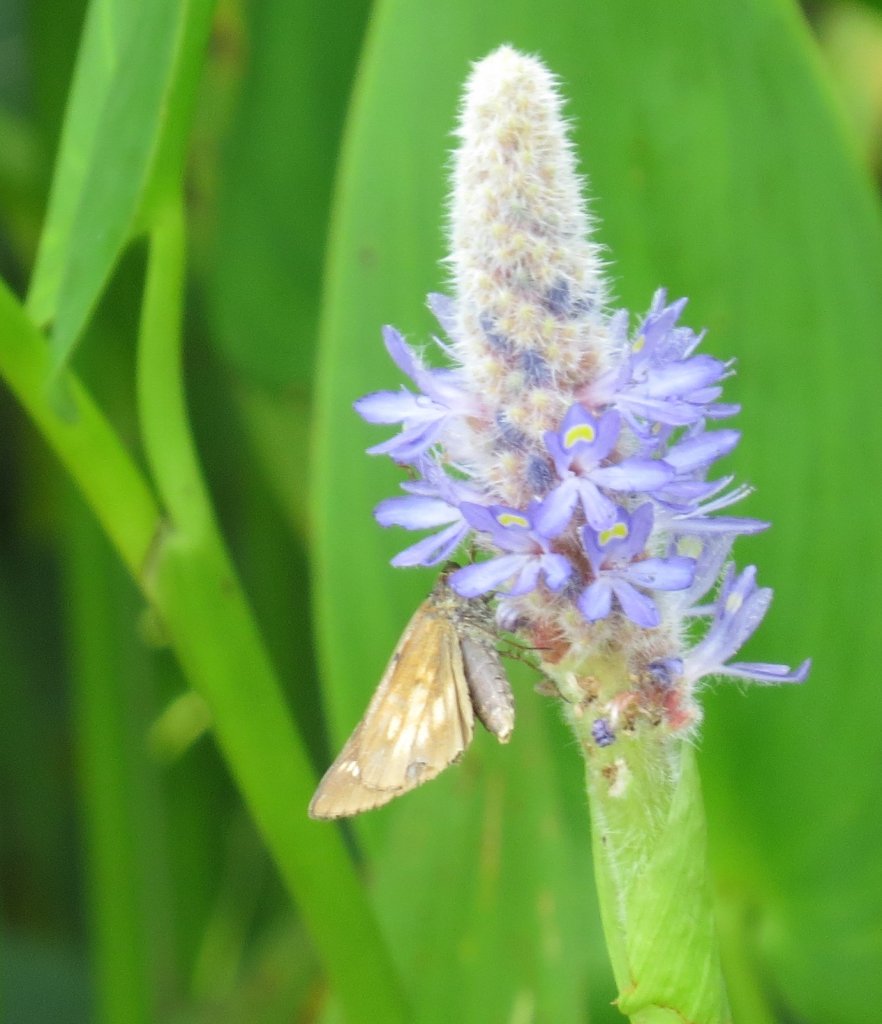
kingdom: Animalia
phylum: Arthropoda
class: Insecta
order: Lepidoptera
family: Hesperiidae
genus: Poanes
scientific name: Poanes viator
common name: Broad-winged Skipper
